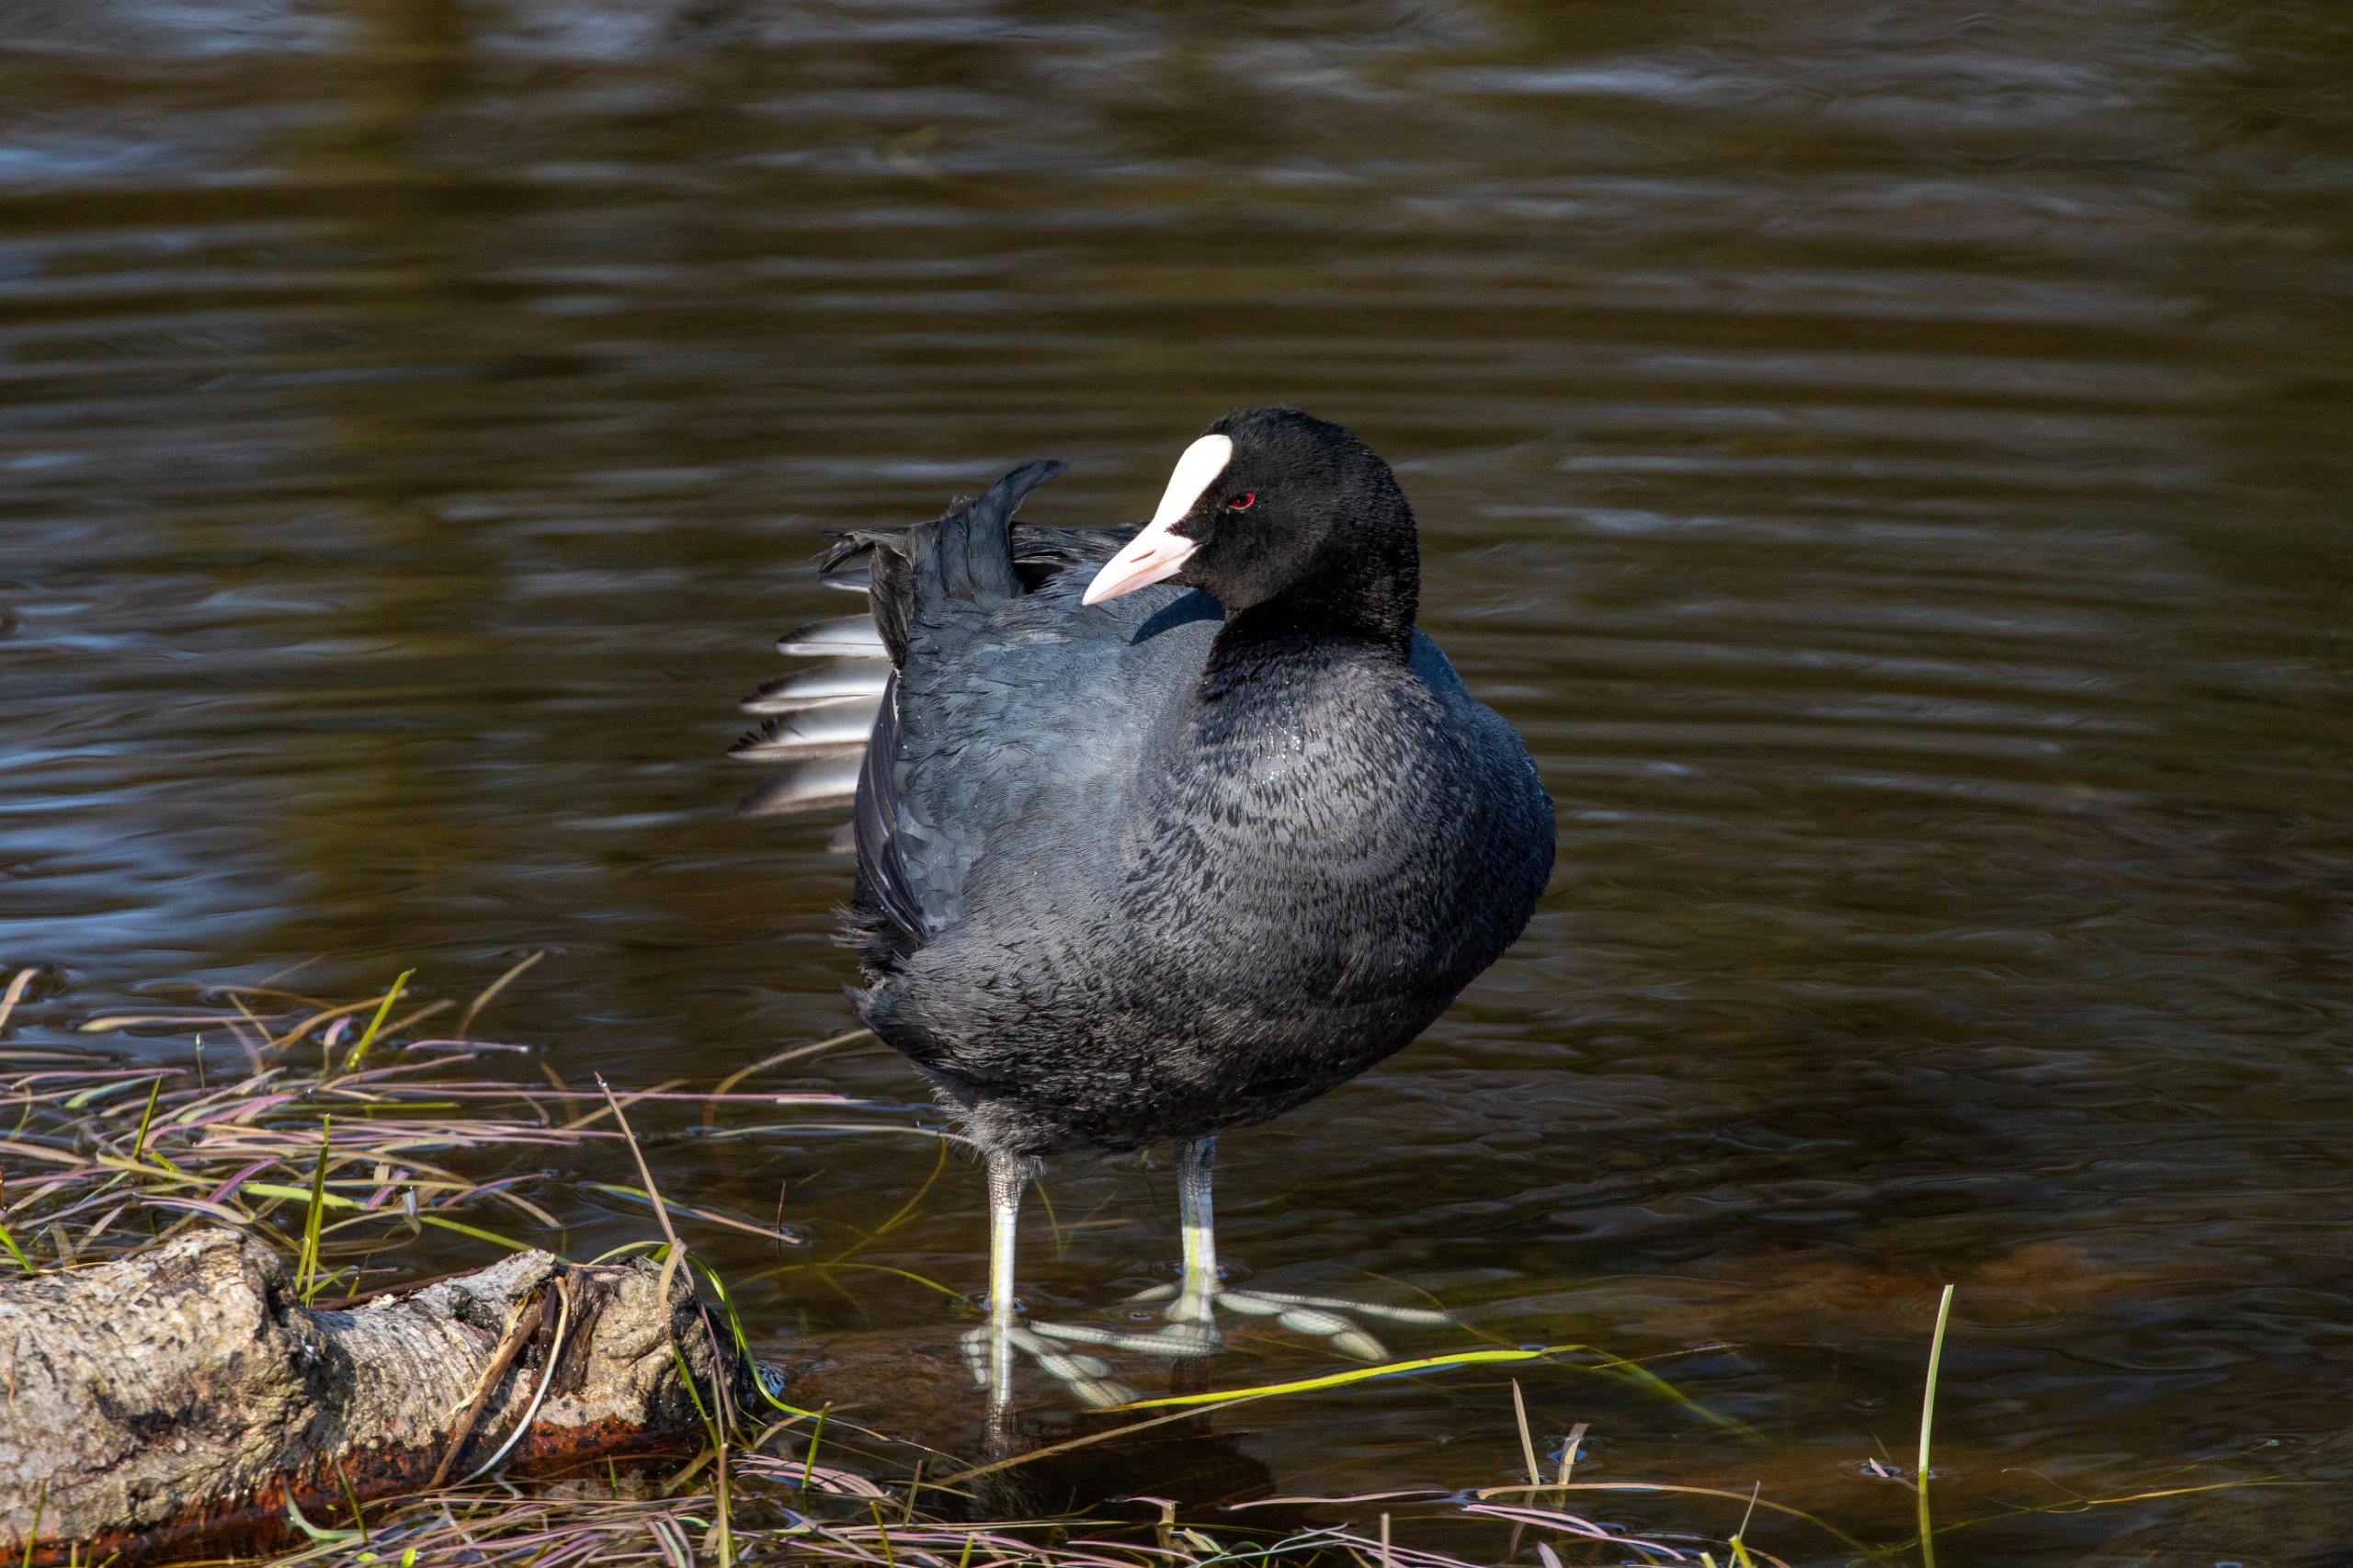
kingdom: Animalia
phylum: Chordata
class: Aves
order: Gruiformes
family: Rallidae
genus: Fulica
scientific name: Fulica atra
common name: Blishøne
